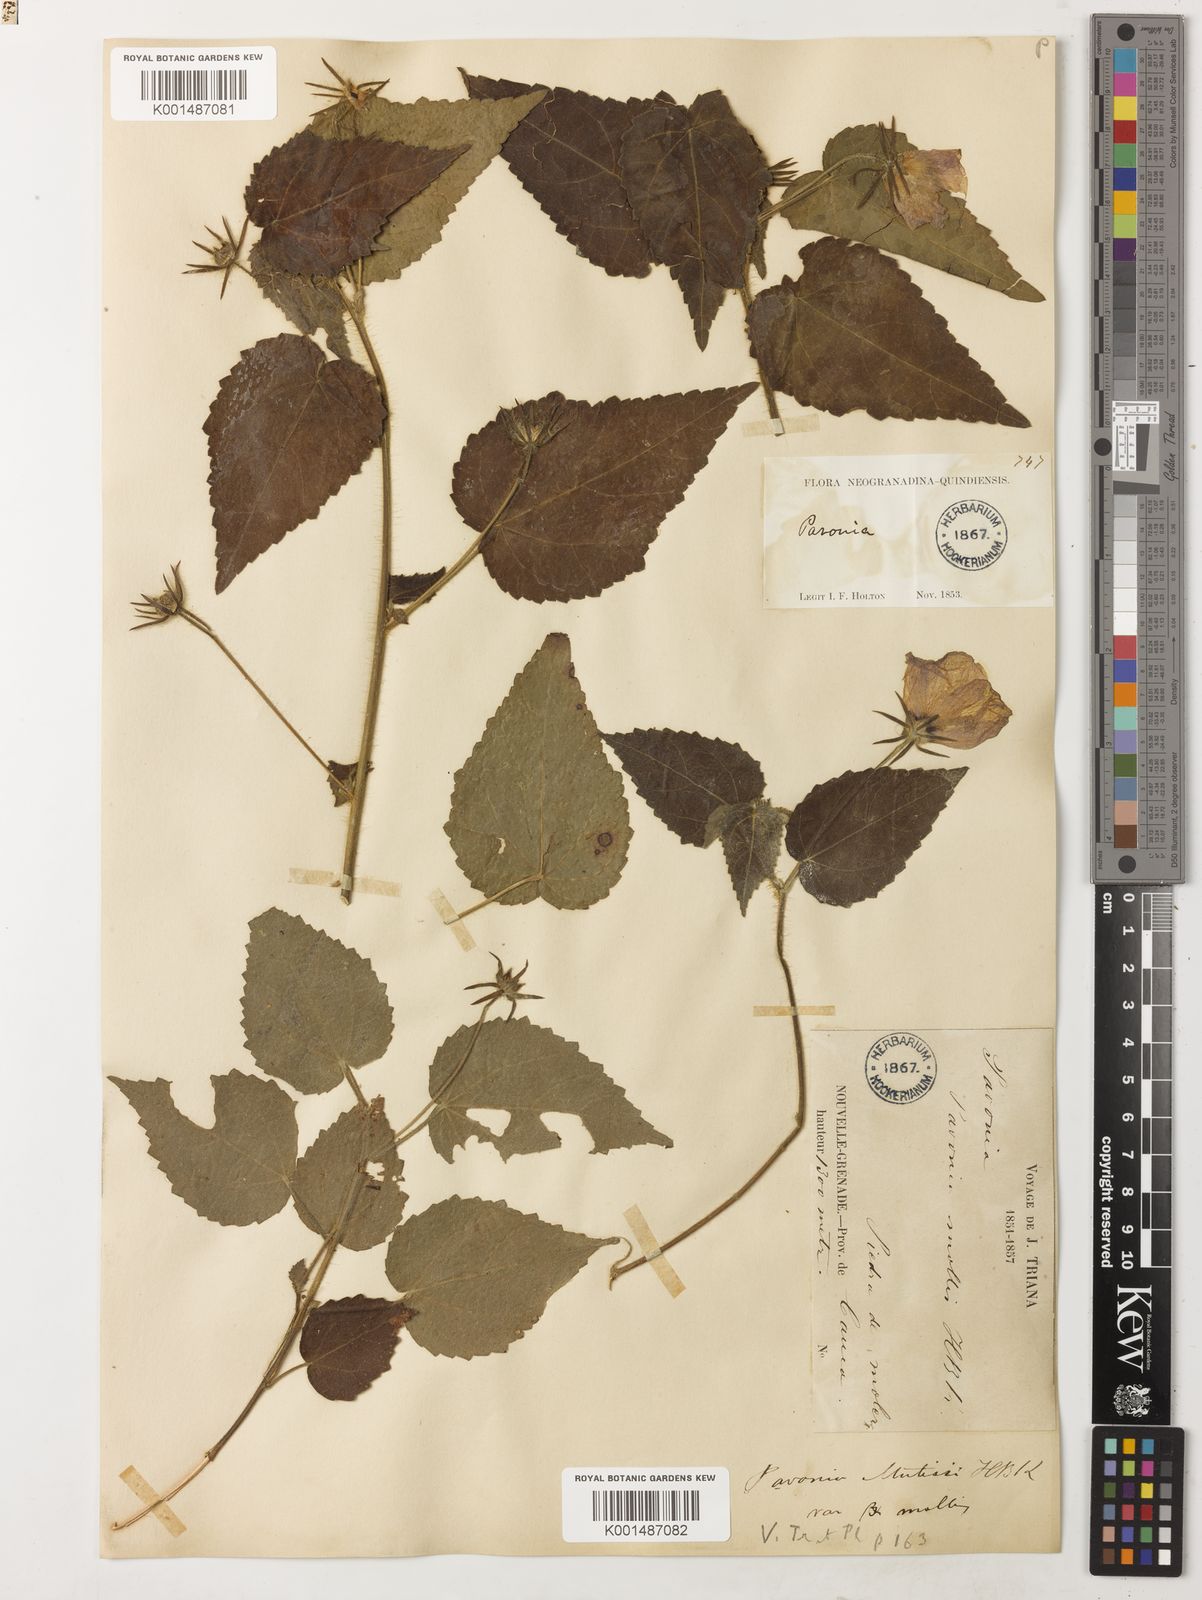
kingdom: Plantae
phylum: Tracheophyta
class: Magnoliopsida
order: Malvales
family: Malvaceae
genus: Pavonia
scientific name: Pavonia mollis
